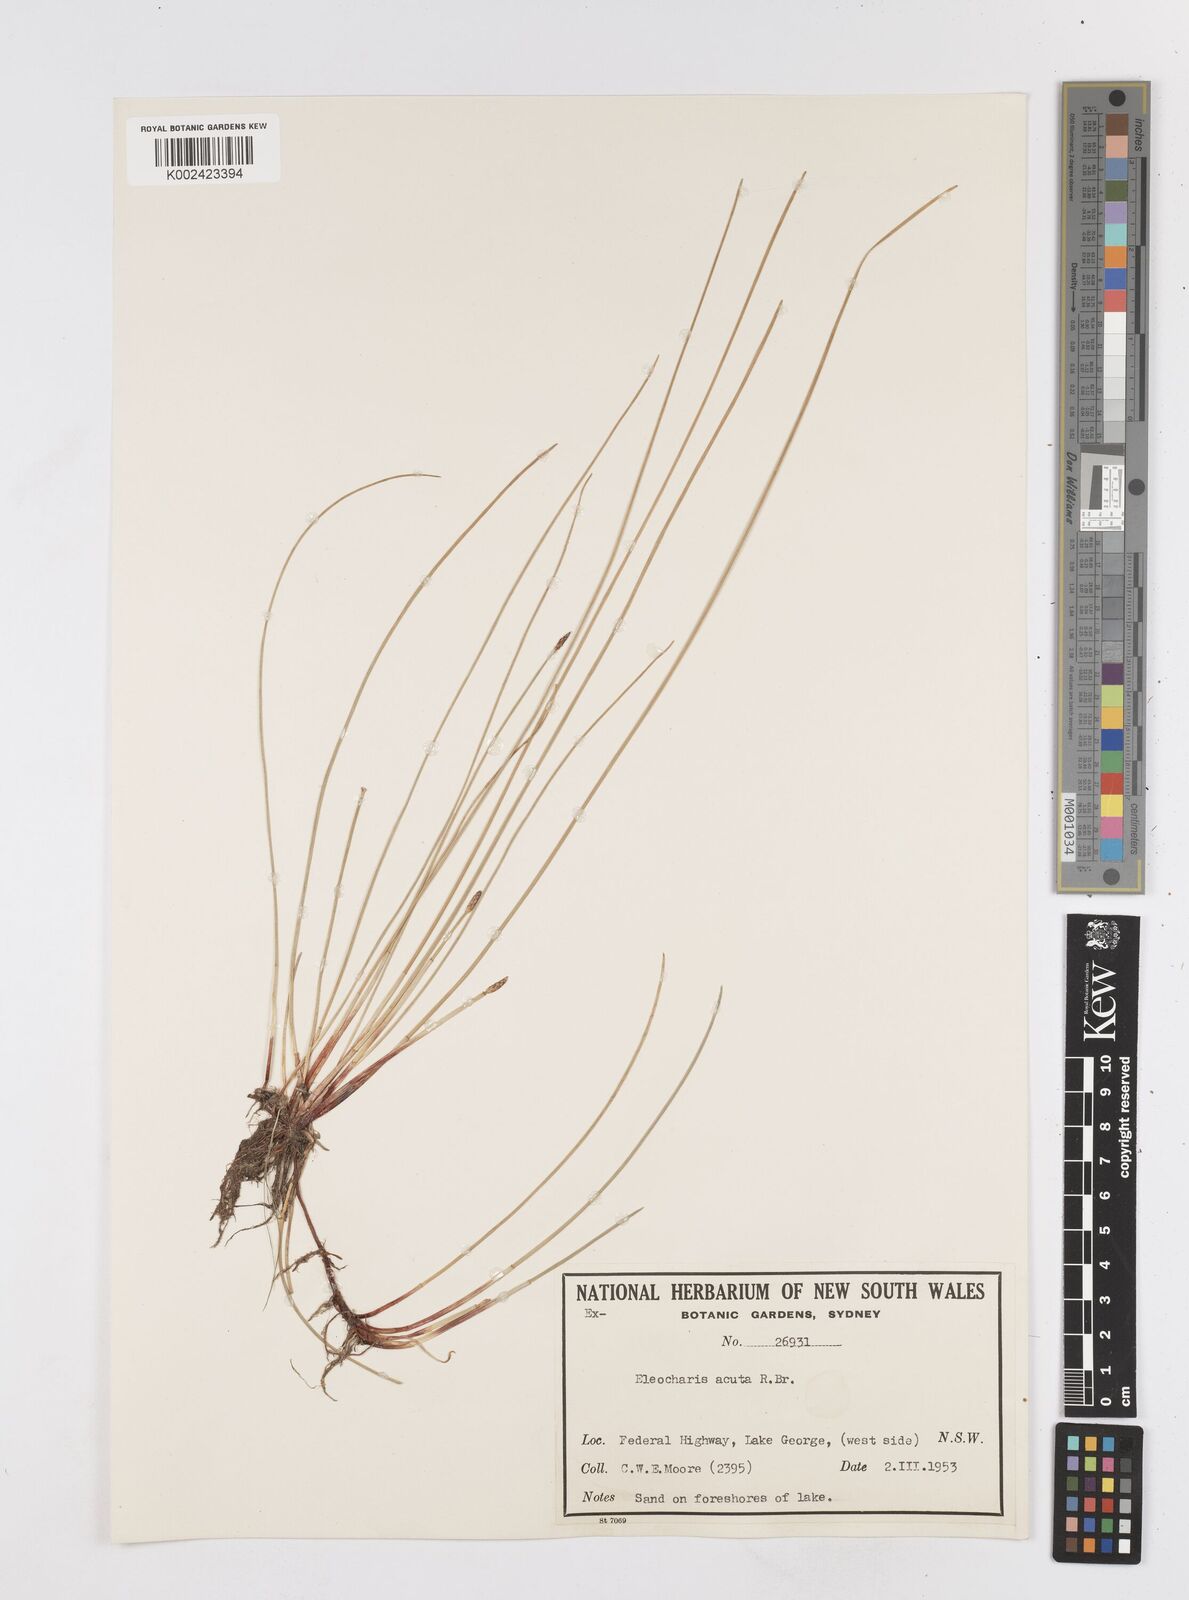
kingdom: Plantae
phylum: Tracheophyta
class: Liliopsida
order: Poales
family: Cyperaceae
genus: Eleocharis
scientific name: Eleocharis acuta
